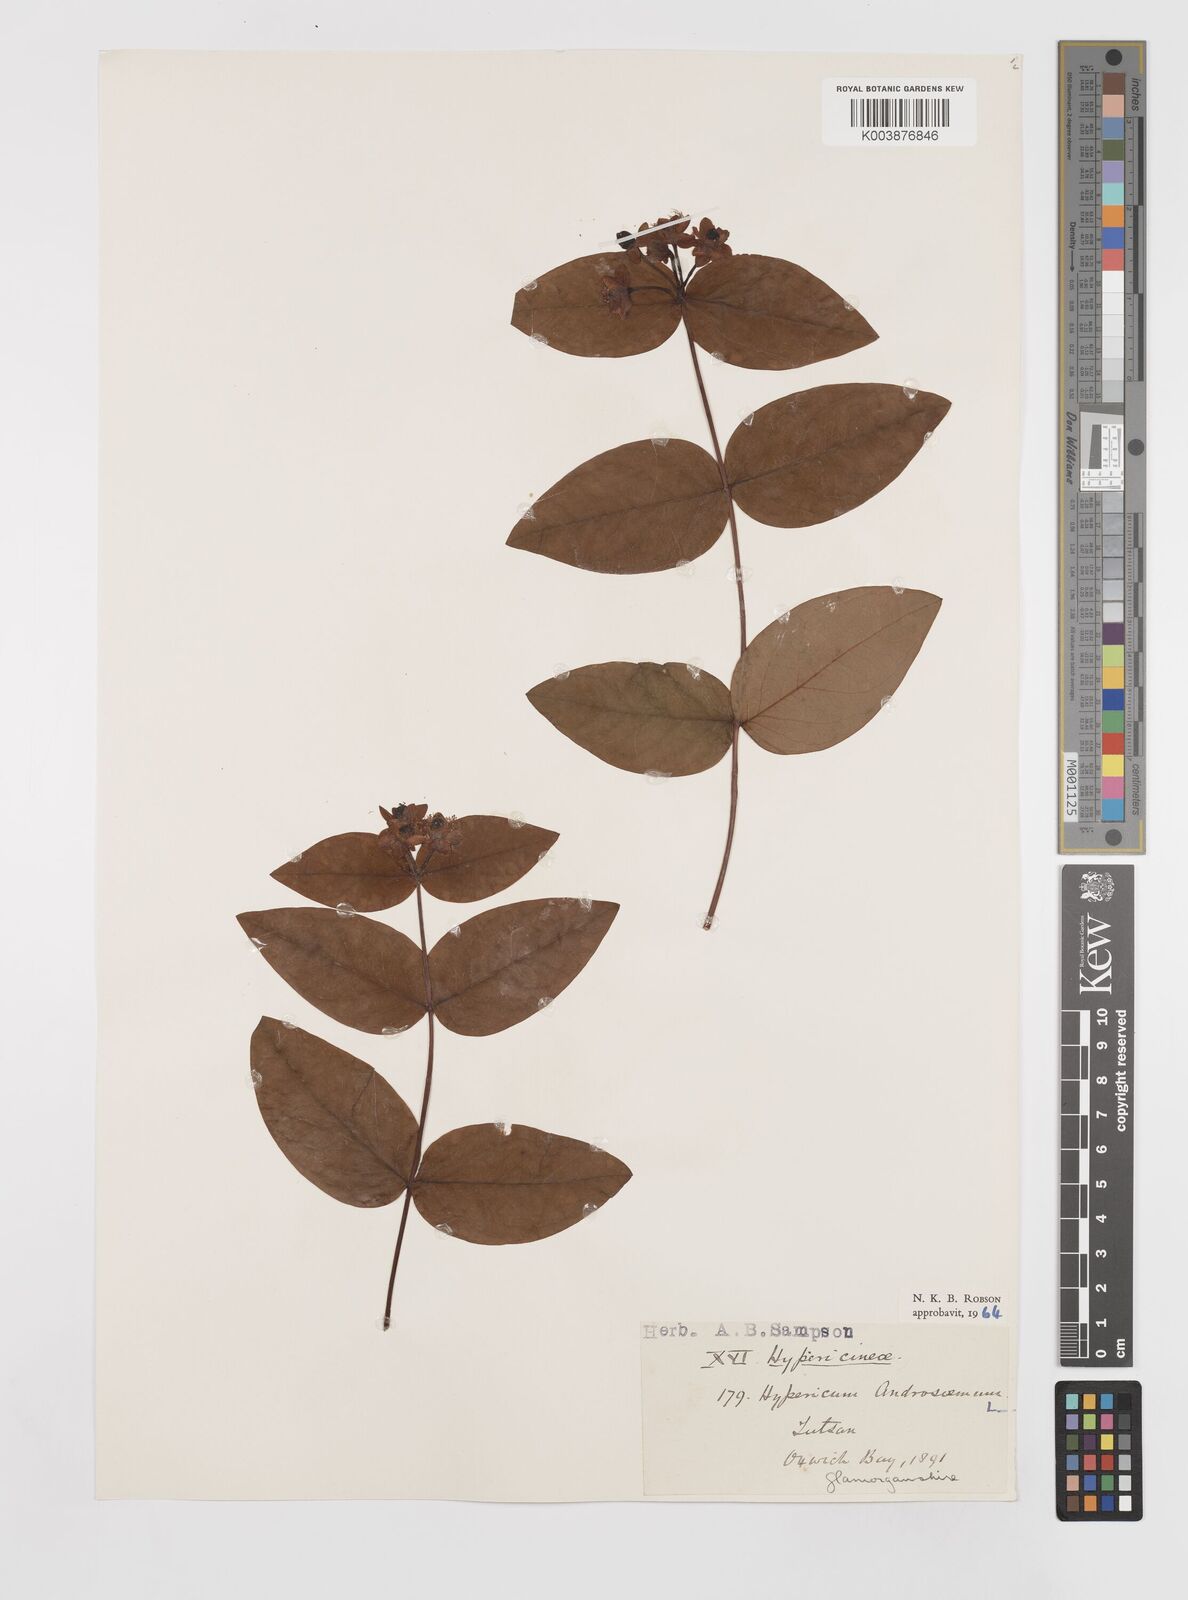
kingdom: Plantae
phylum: Tracheophyta
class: Magnoliopsida
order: Malpighiales
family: Hypericaceae
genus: Hypericum
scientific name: Hypericum androsaemum
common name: Sweet-amber
